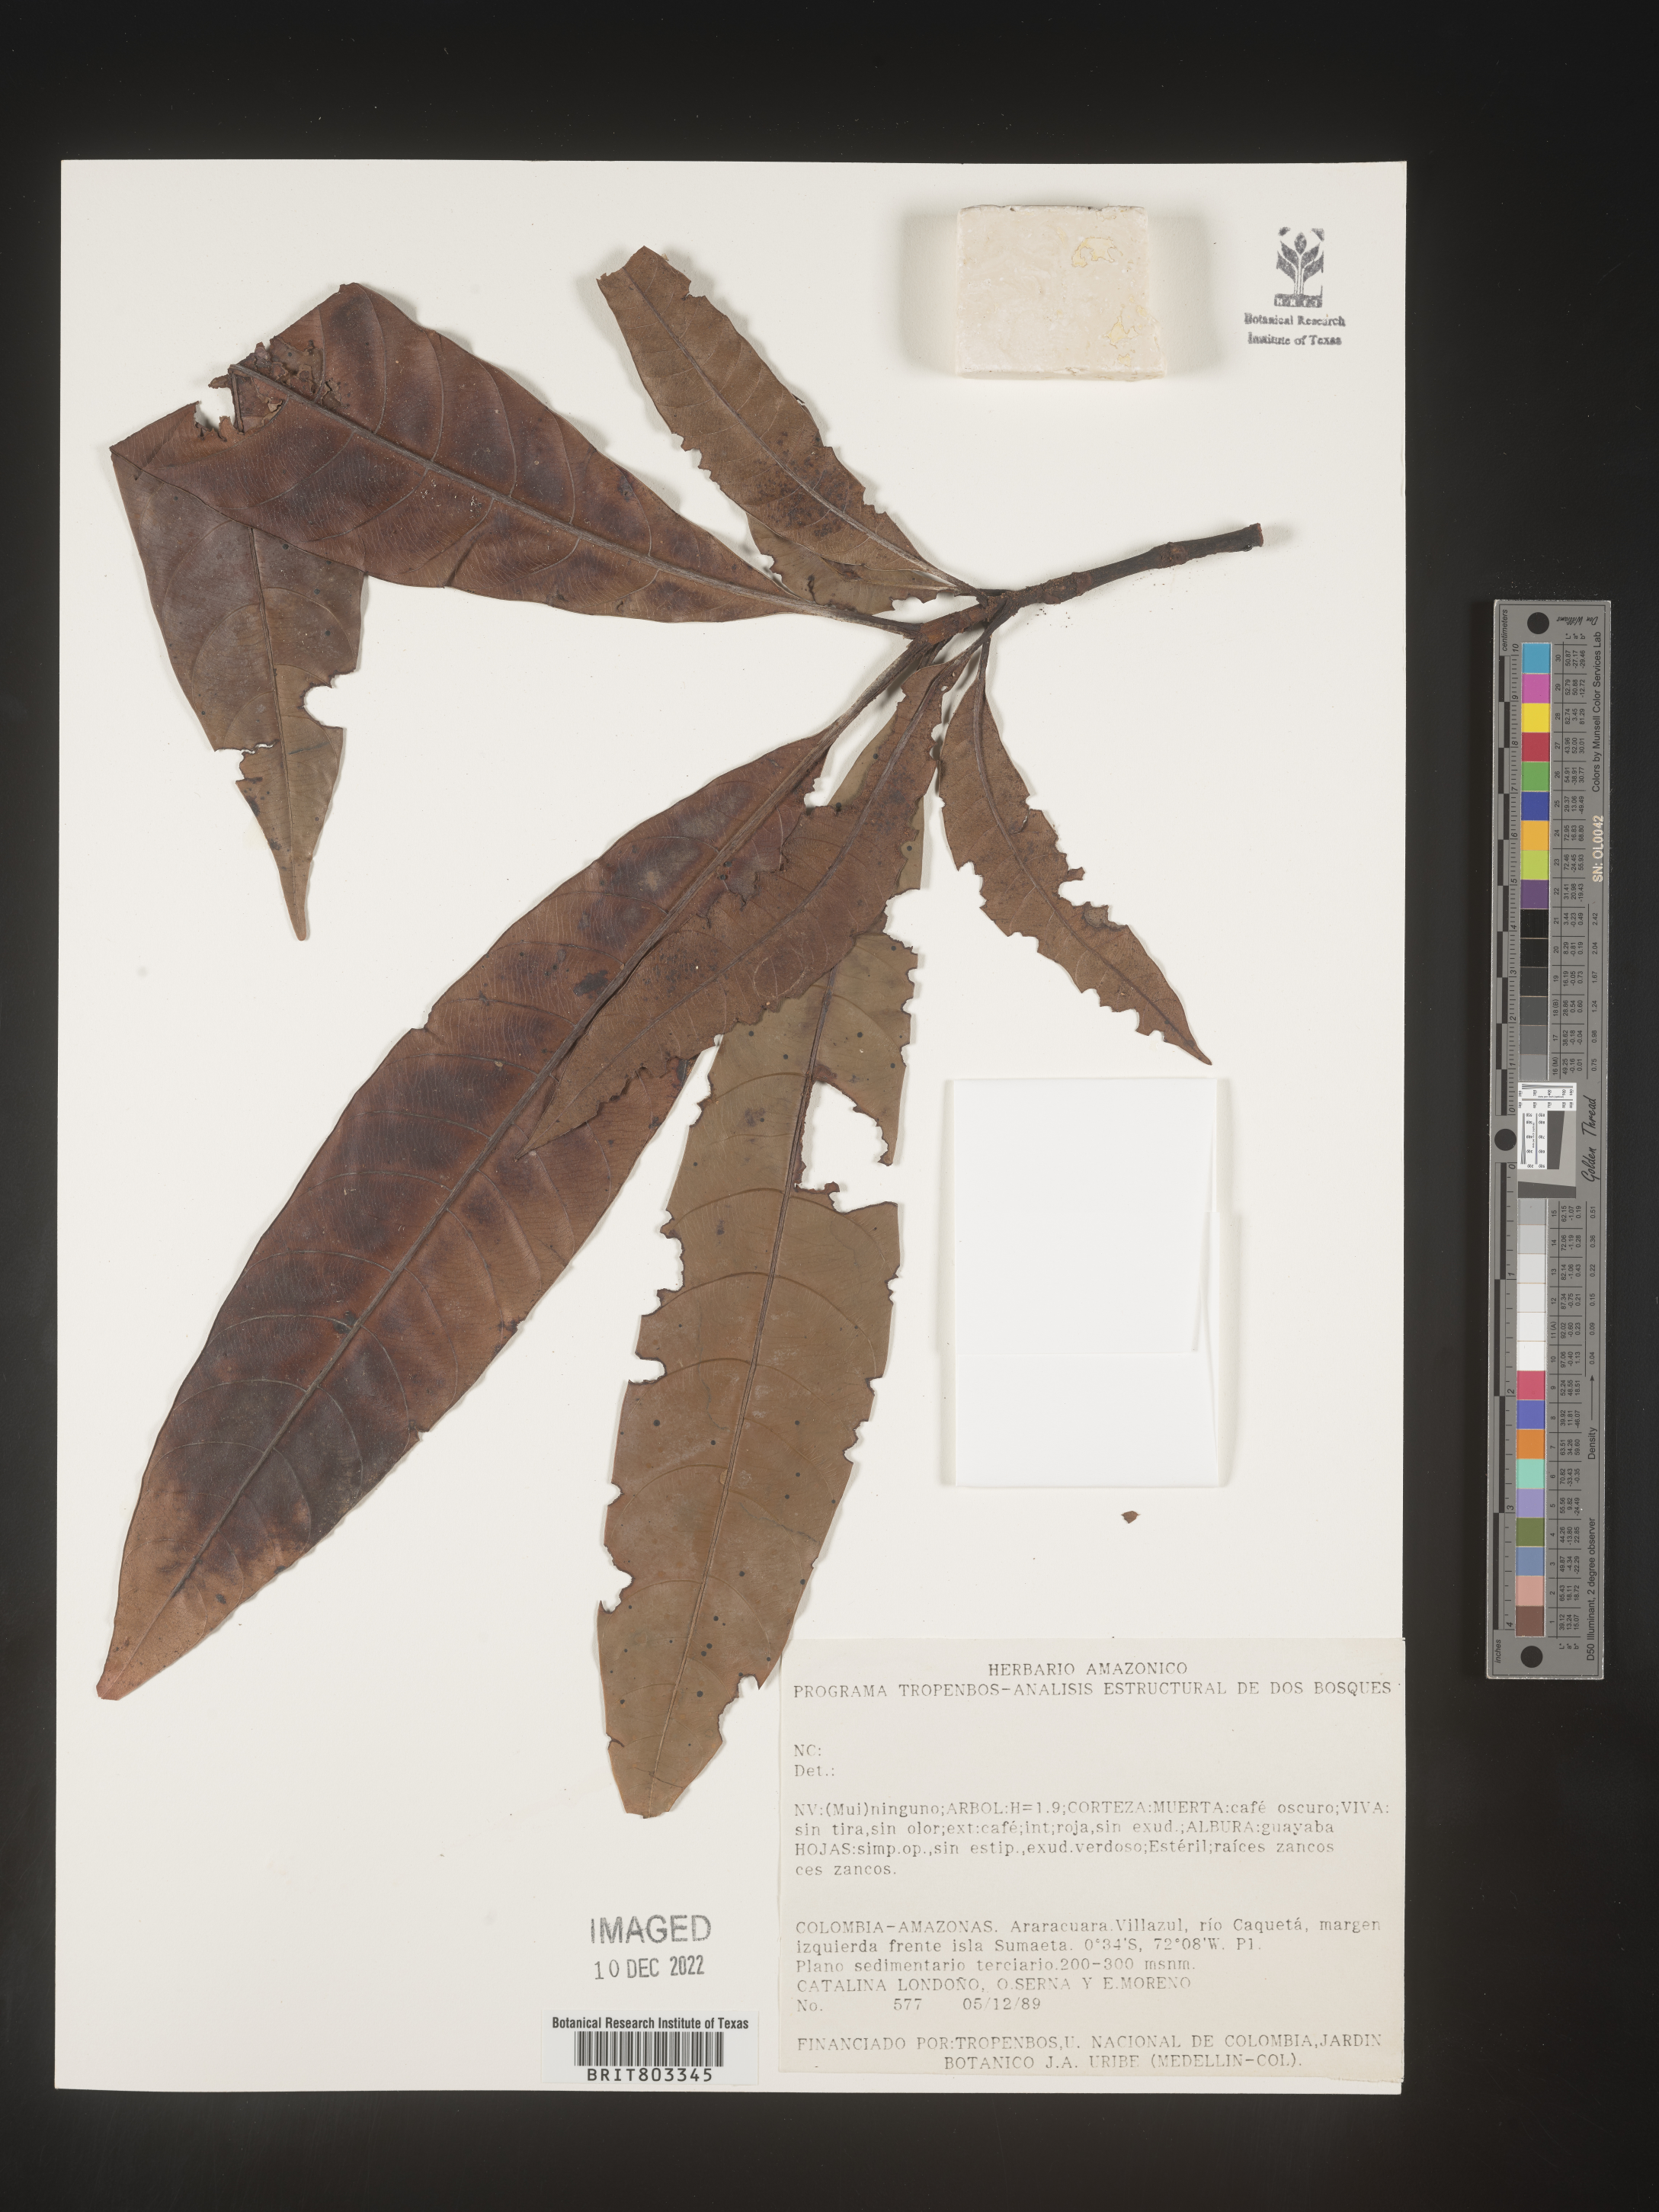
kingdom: Plantae
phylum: Tracheophyta
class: Magnoliopsida
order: Malpighiales
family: Clusiaceae
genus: Tovomita
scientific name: Tovomita
